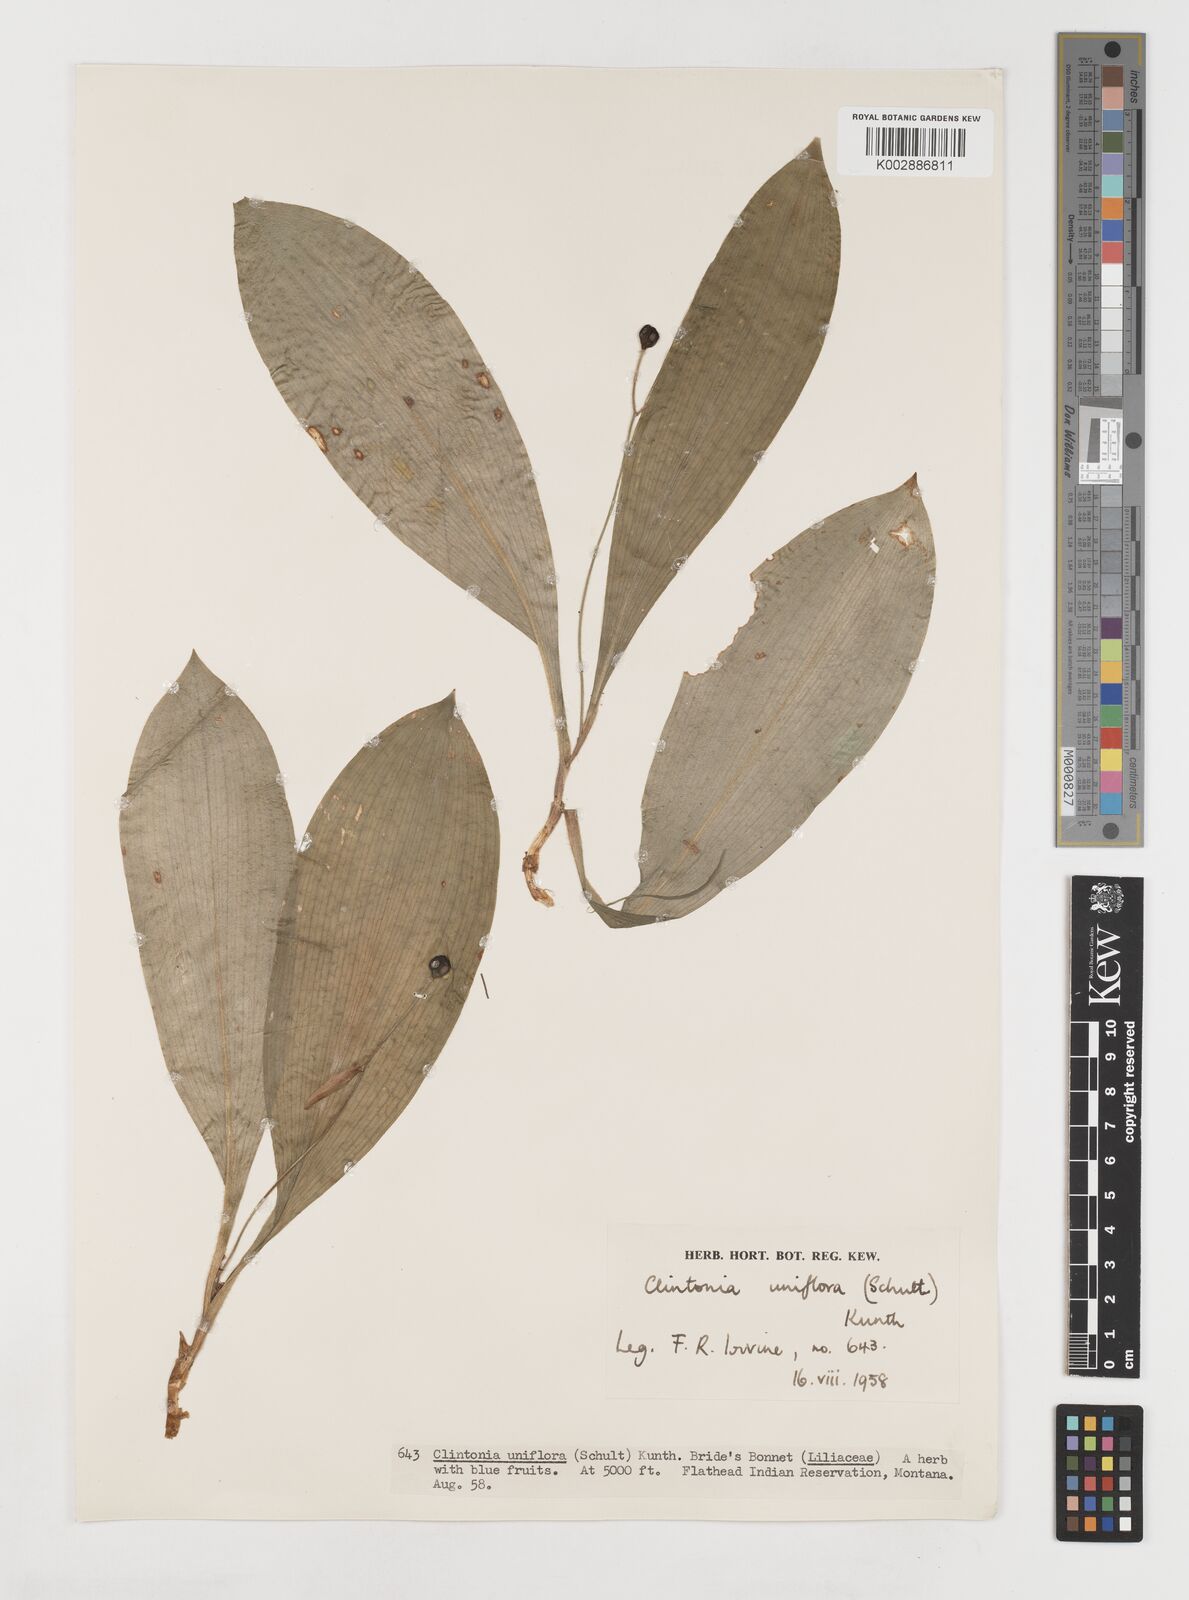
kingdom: Plantae
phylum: Tracheophyta
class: Liliopsida
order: Liliales
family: Liliaceae
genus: Clintonia
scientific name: Clintonia uniflora
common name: Queen's cup
